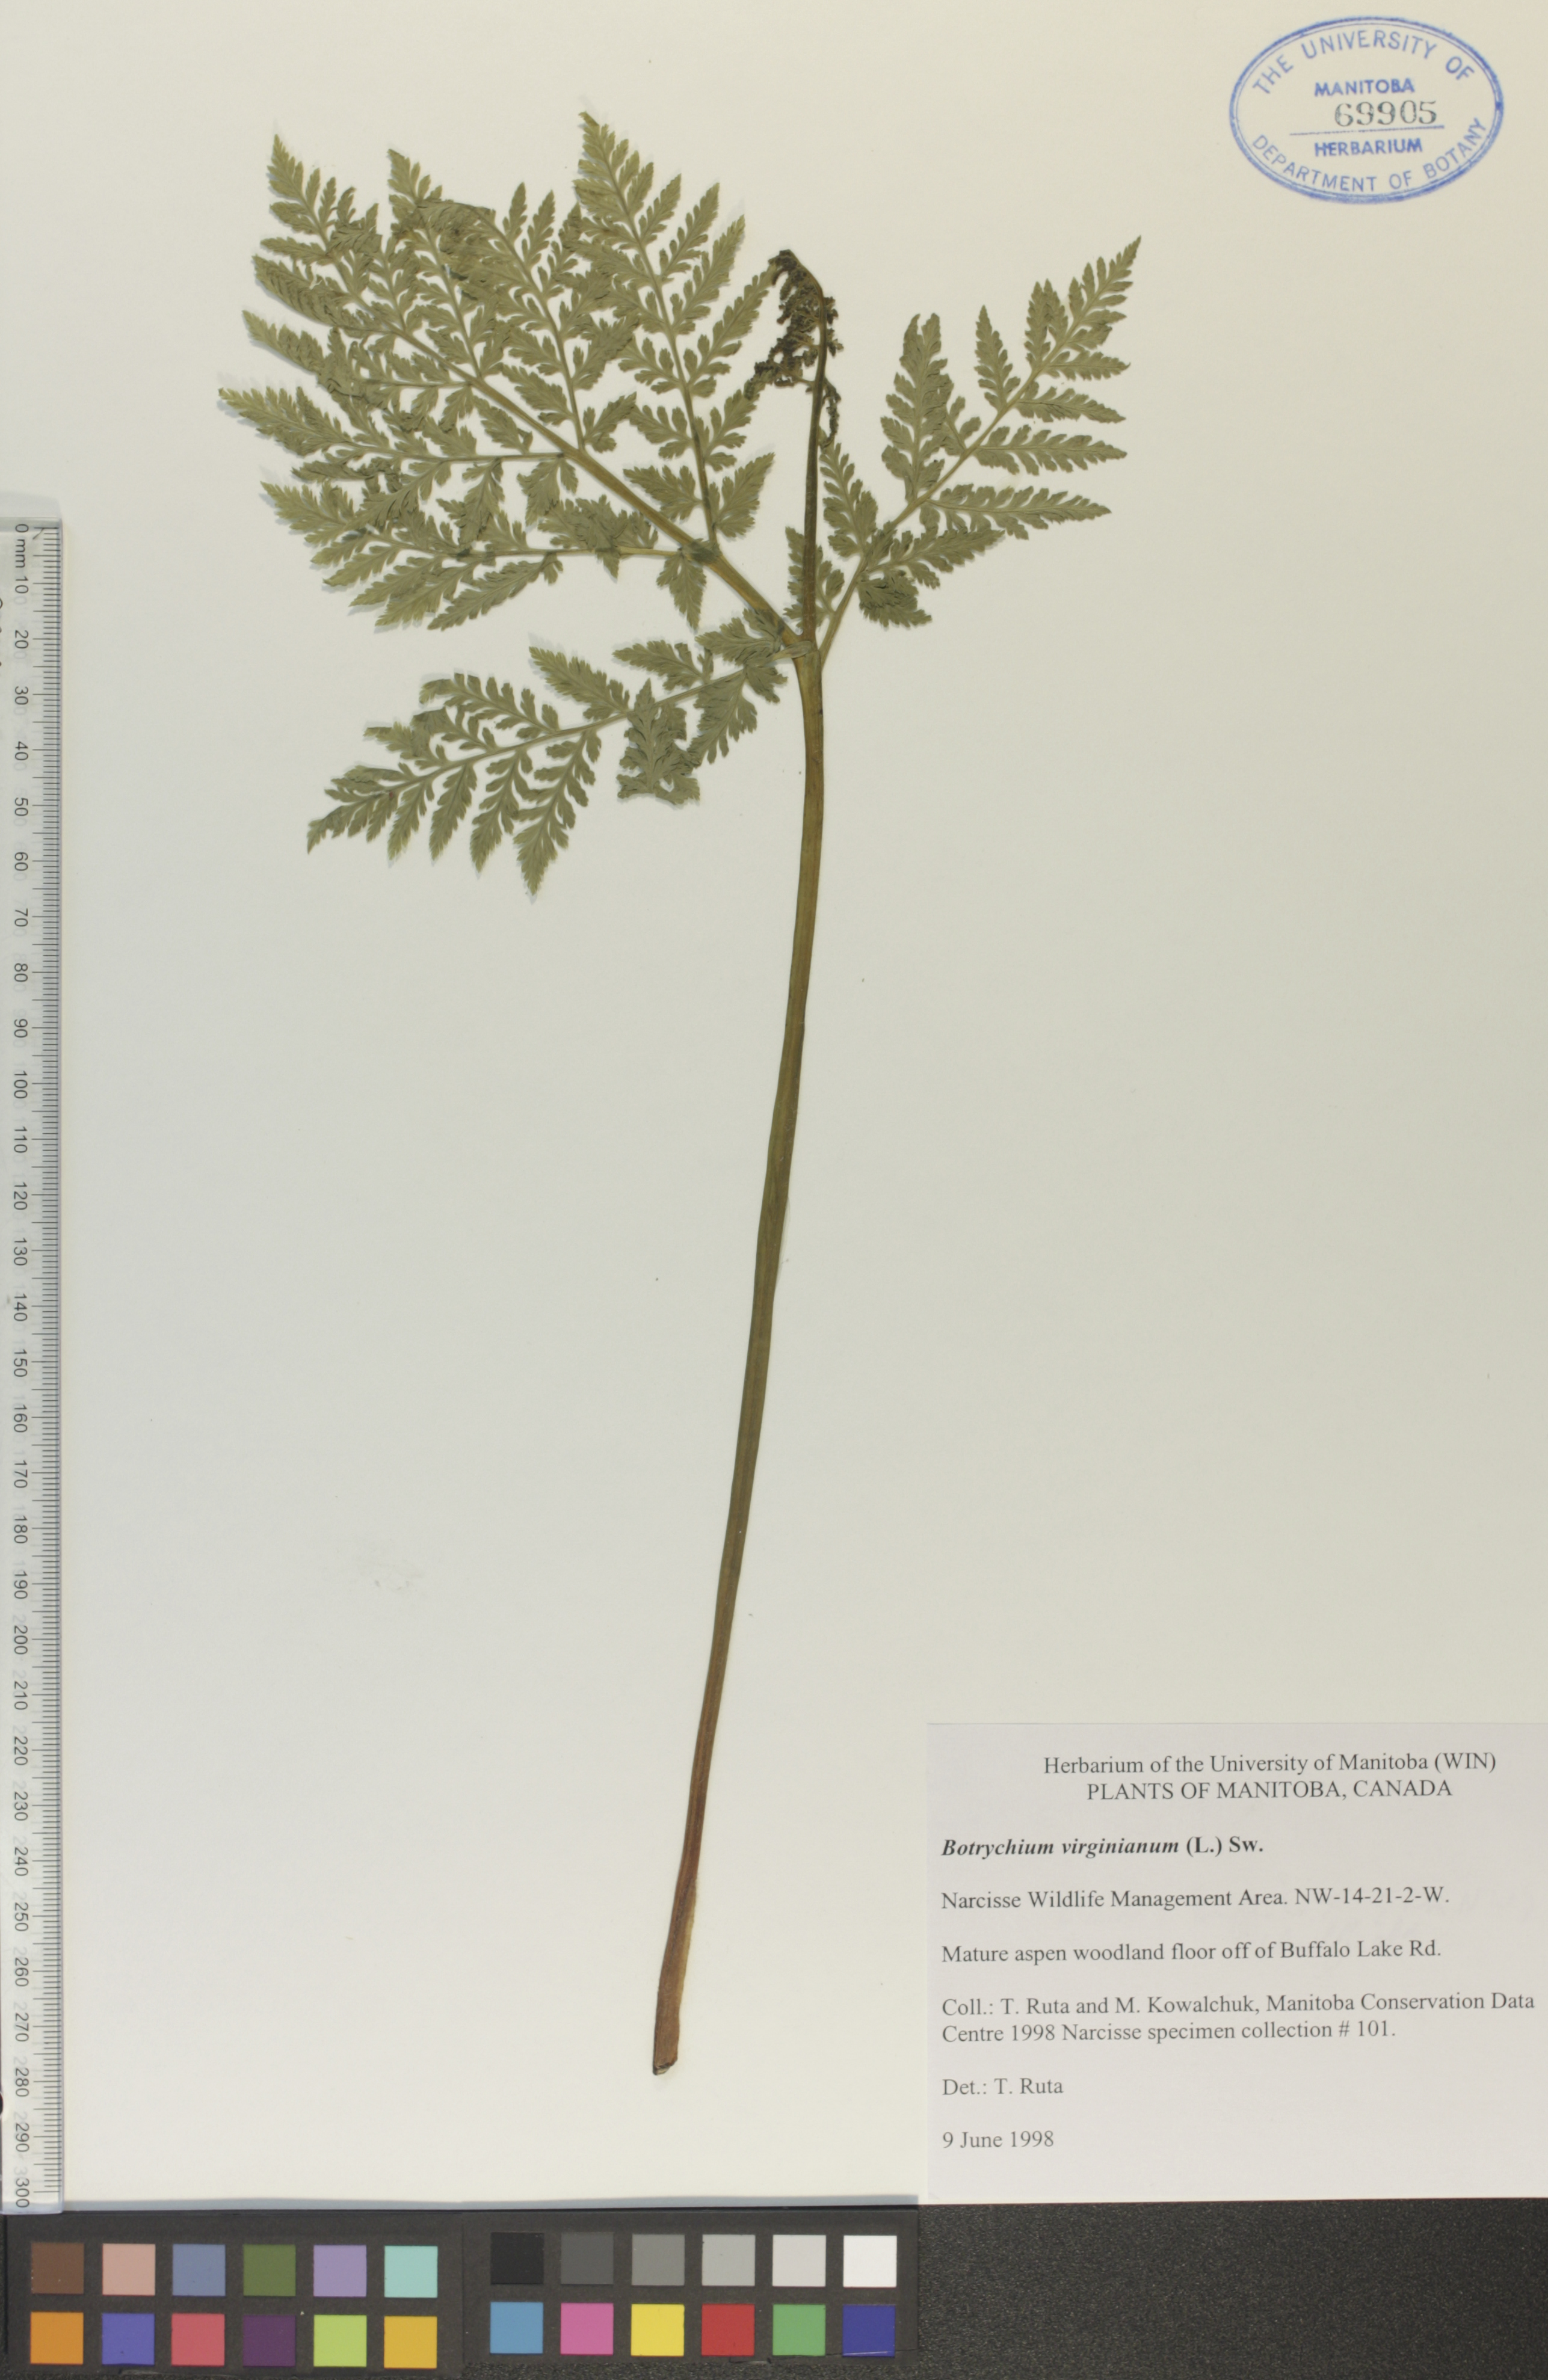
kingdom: Plantae
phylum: Tracheophyta
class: Polypodiopsida
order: Ophioglossales
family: Ophioglossaceae
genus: Botrypus
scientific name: Botrypus virginianus
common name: Common grapefern
